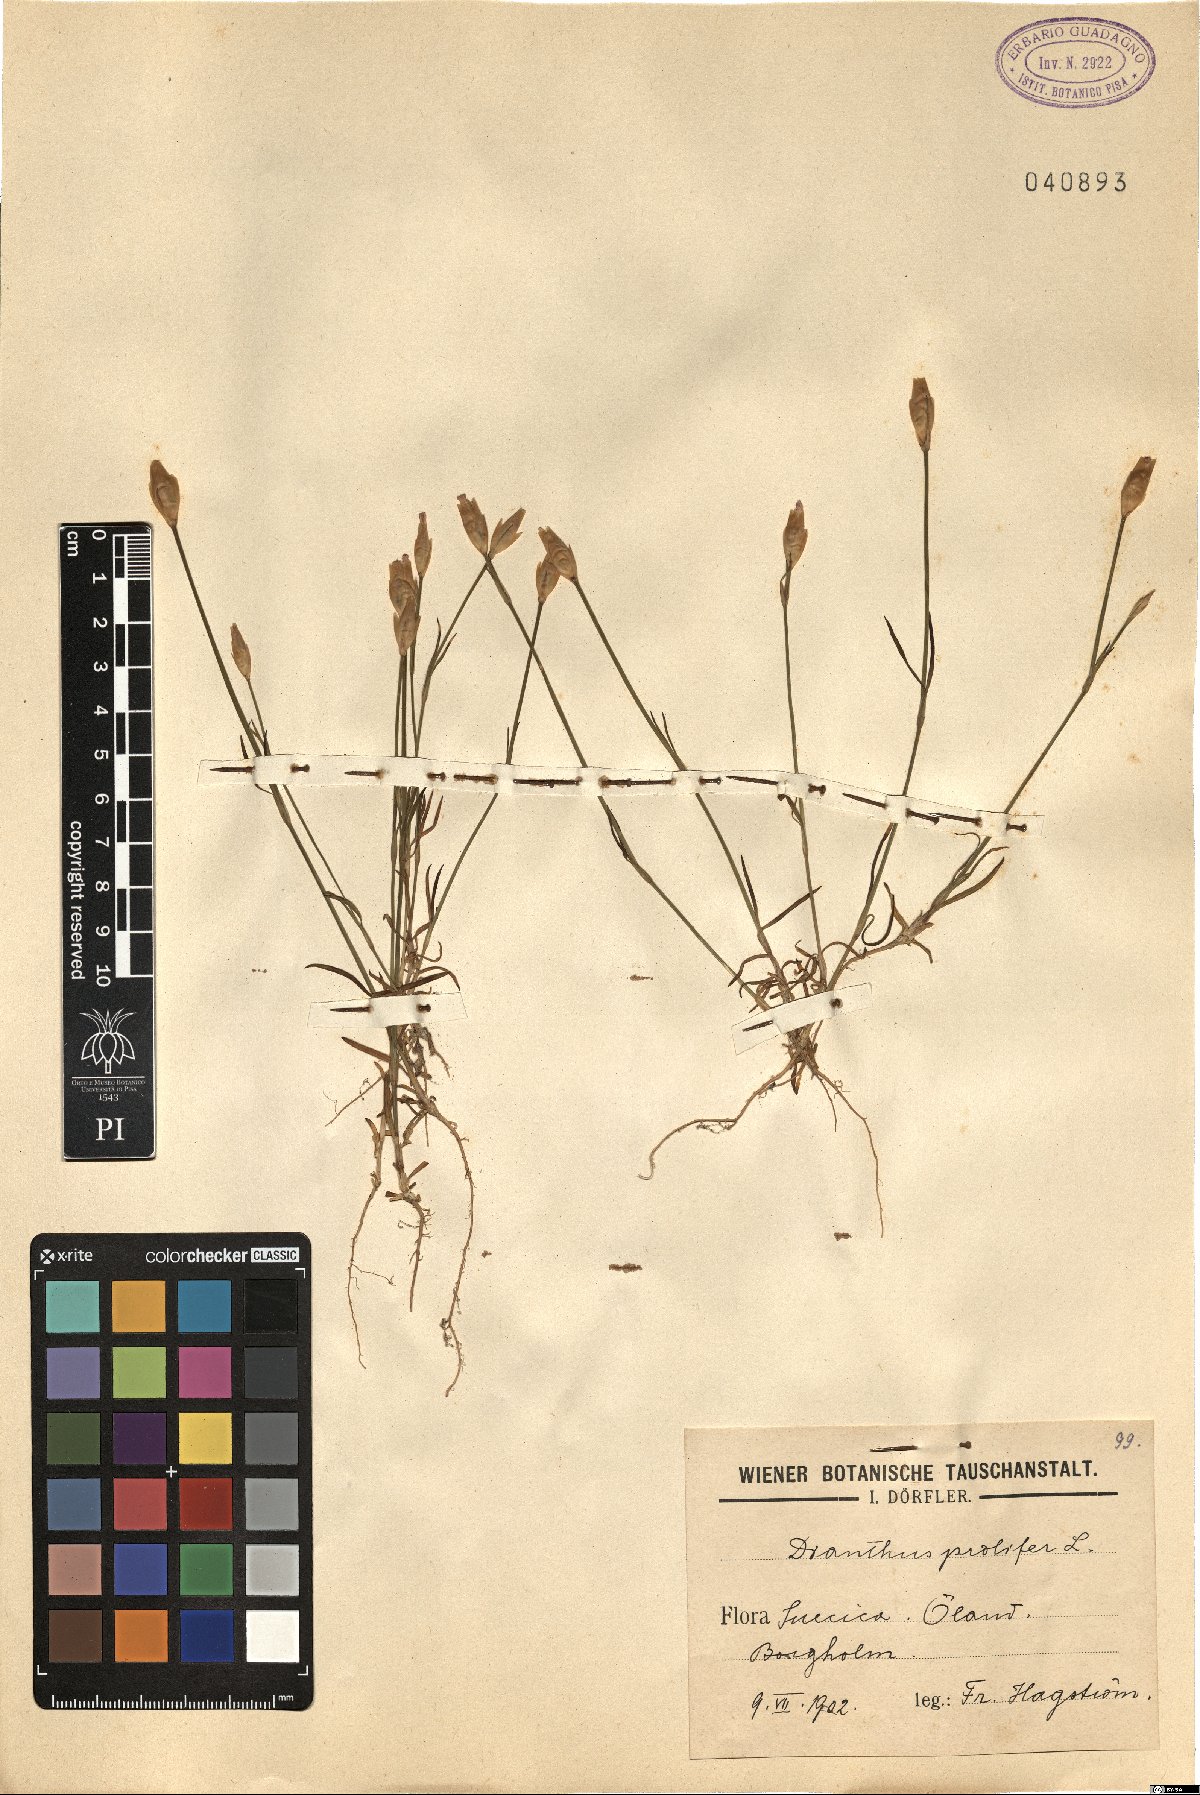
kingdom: Plantae
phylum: Tracheophyta
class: Magnoliopsida
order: Caryophyllales
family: Caryophyllaceae
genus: Petrorhagia
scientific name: Petrorhagia prolifera
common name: Proliferous pink
